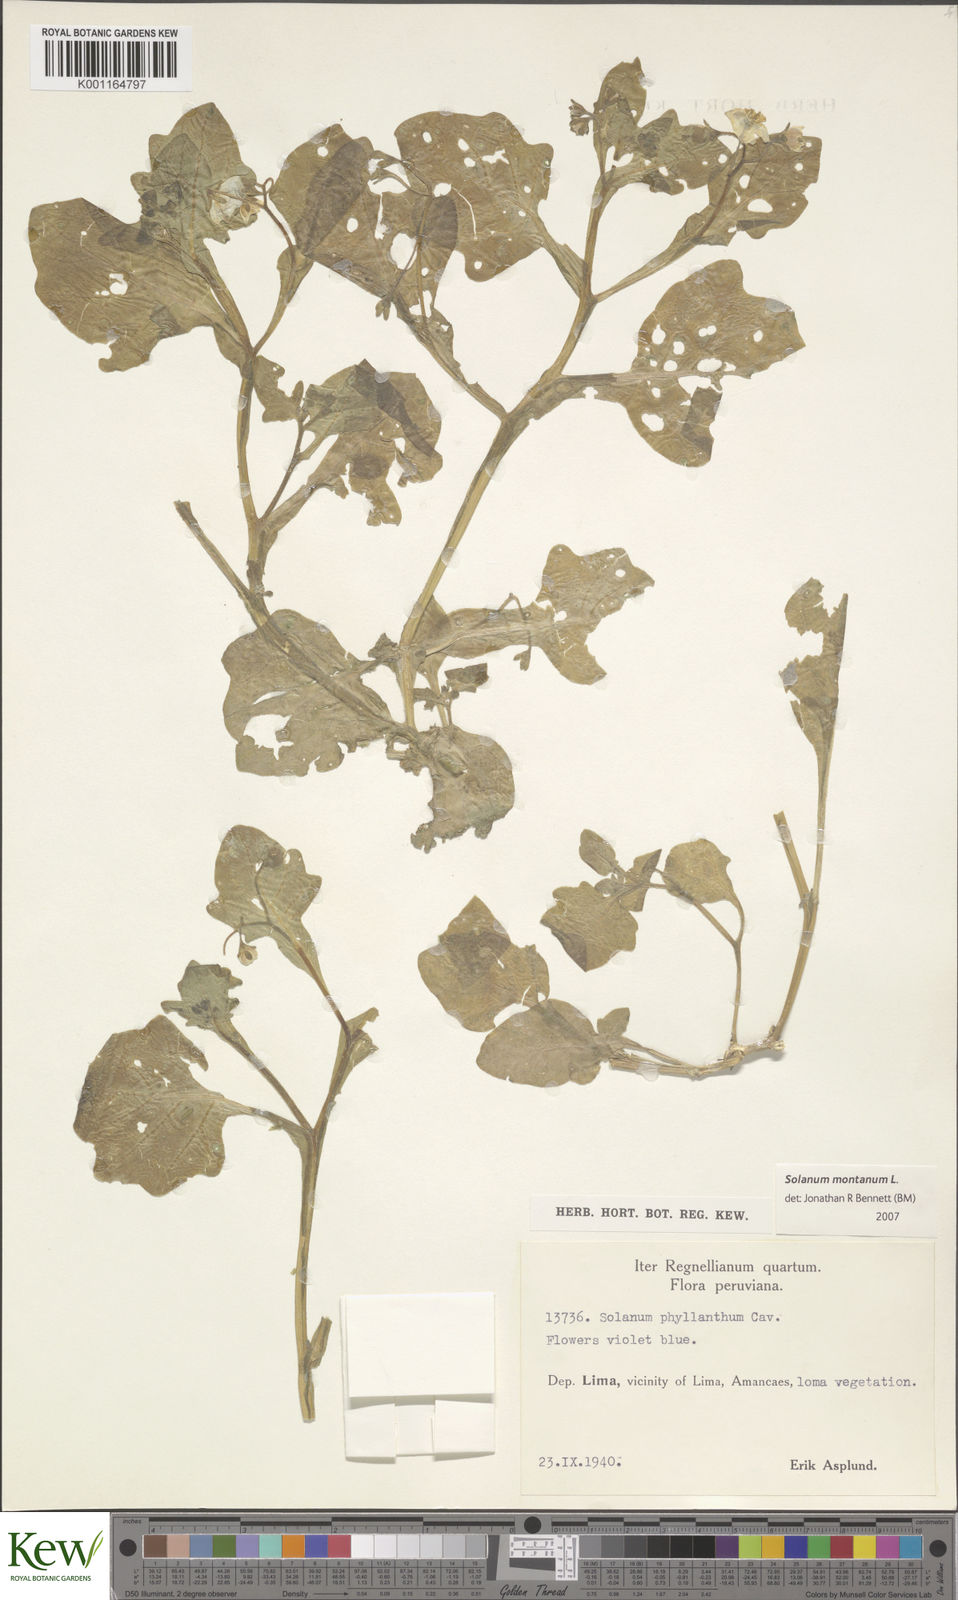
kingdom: Plantae
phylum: Tracheophyta
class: Magnoliopsida
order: Solanales
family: Solanaceae
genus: Solanum
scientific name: Solanum montanum
